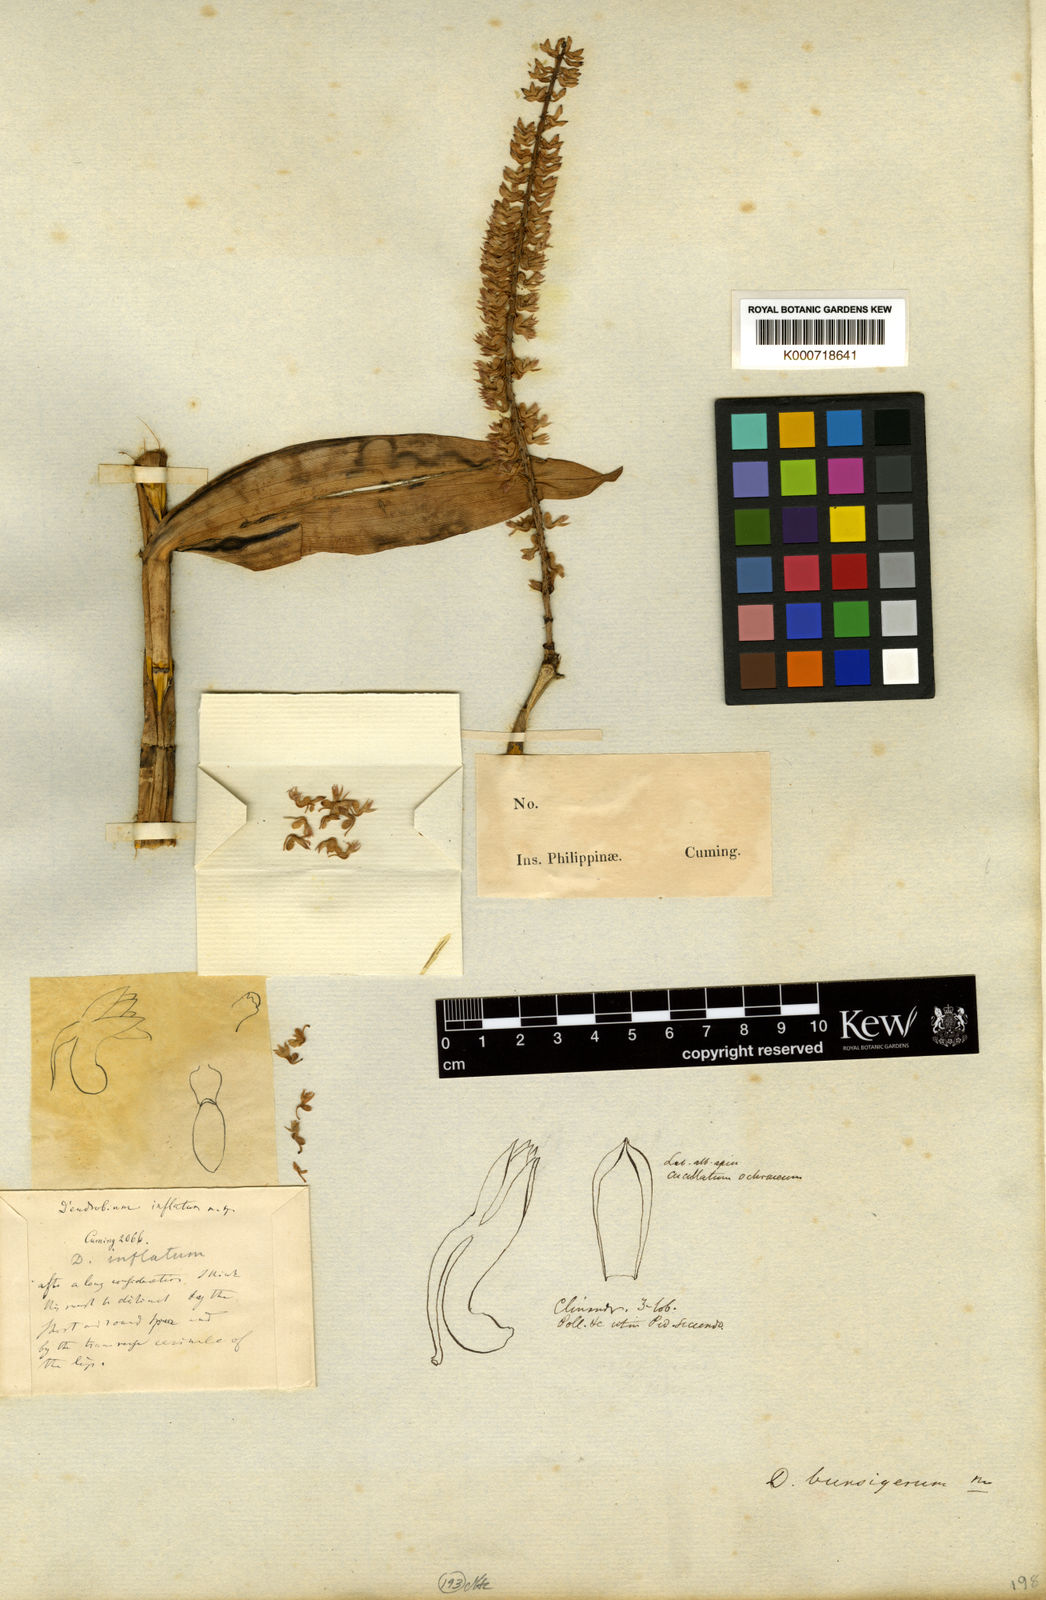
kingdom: Plantae
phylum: Tracheophyta
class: Liliopsida
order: Asparagales
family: Orchidaceae
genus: Dendrobium
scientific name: Dendrobium bursigerum
